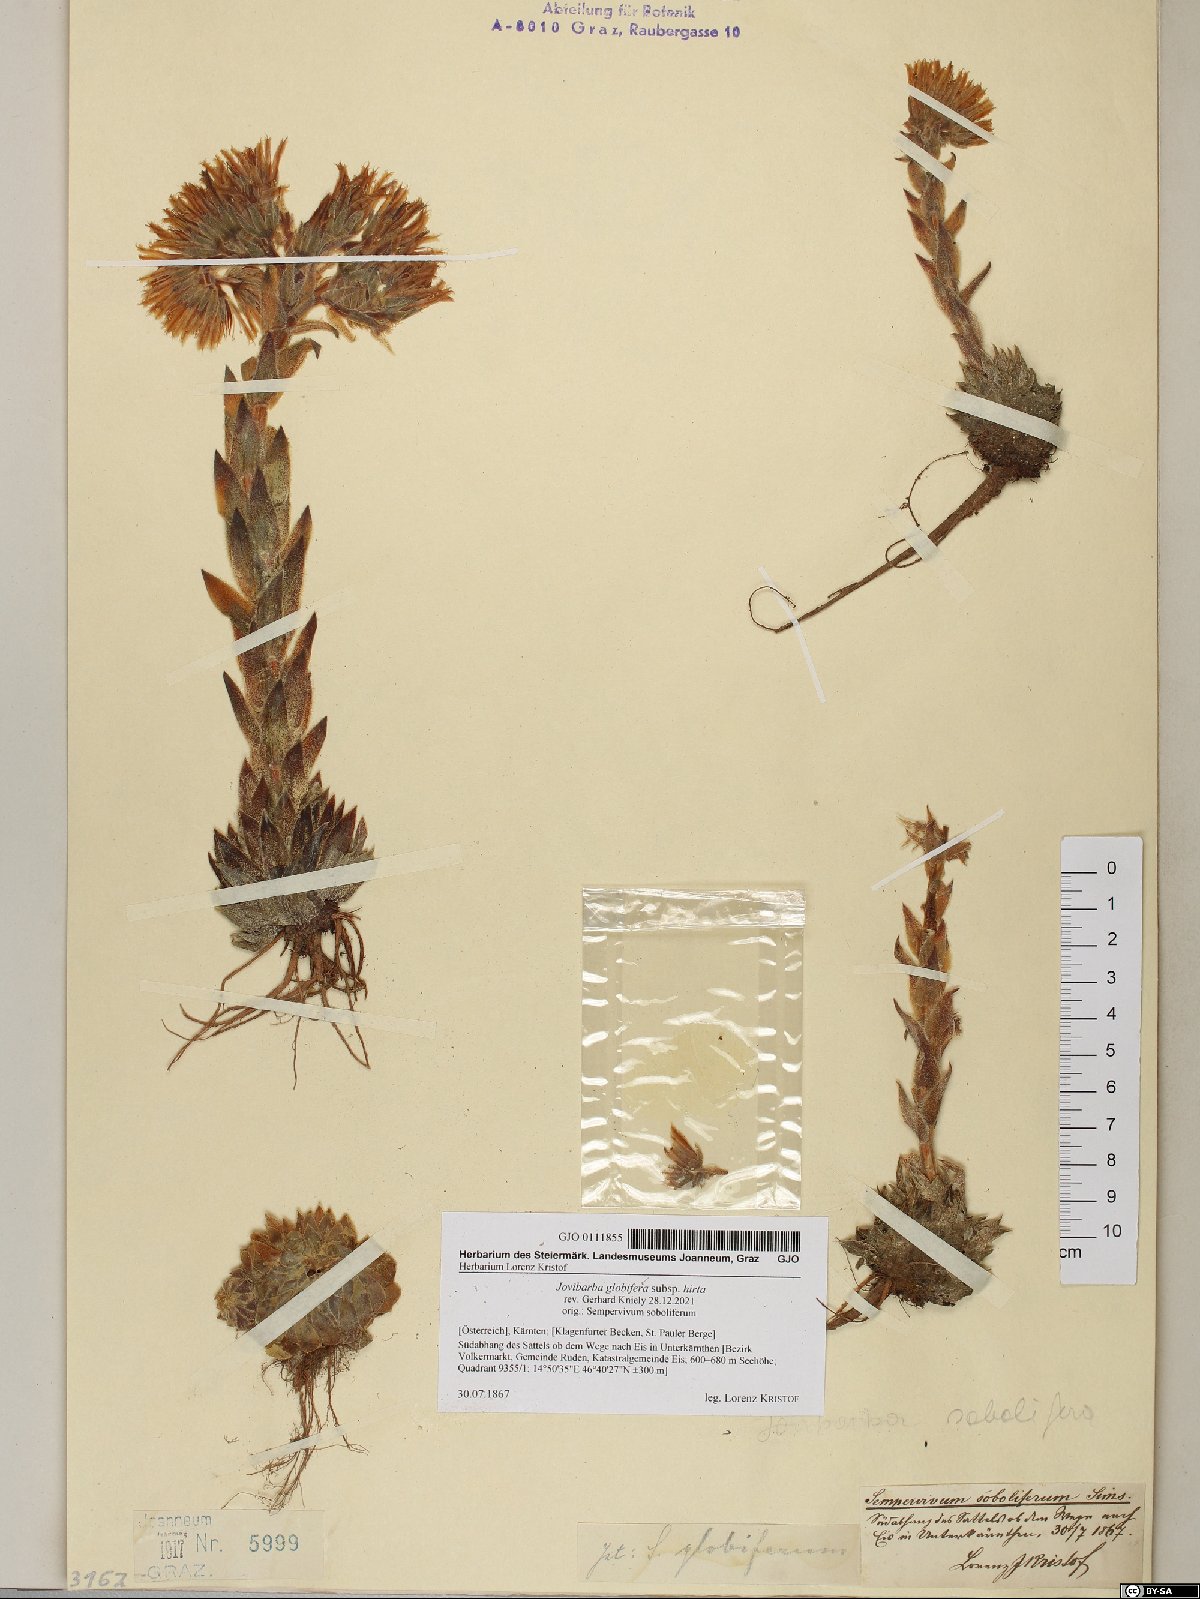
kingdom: Plantae
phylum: Tracheophyta
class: Magnoliopsida
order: Saxifragales
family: Crassulaceae
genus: Sempervivum
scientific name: Sempervivum globiferum
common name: Rolling hen-and-chicks
